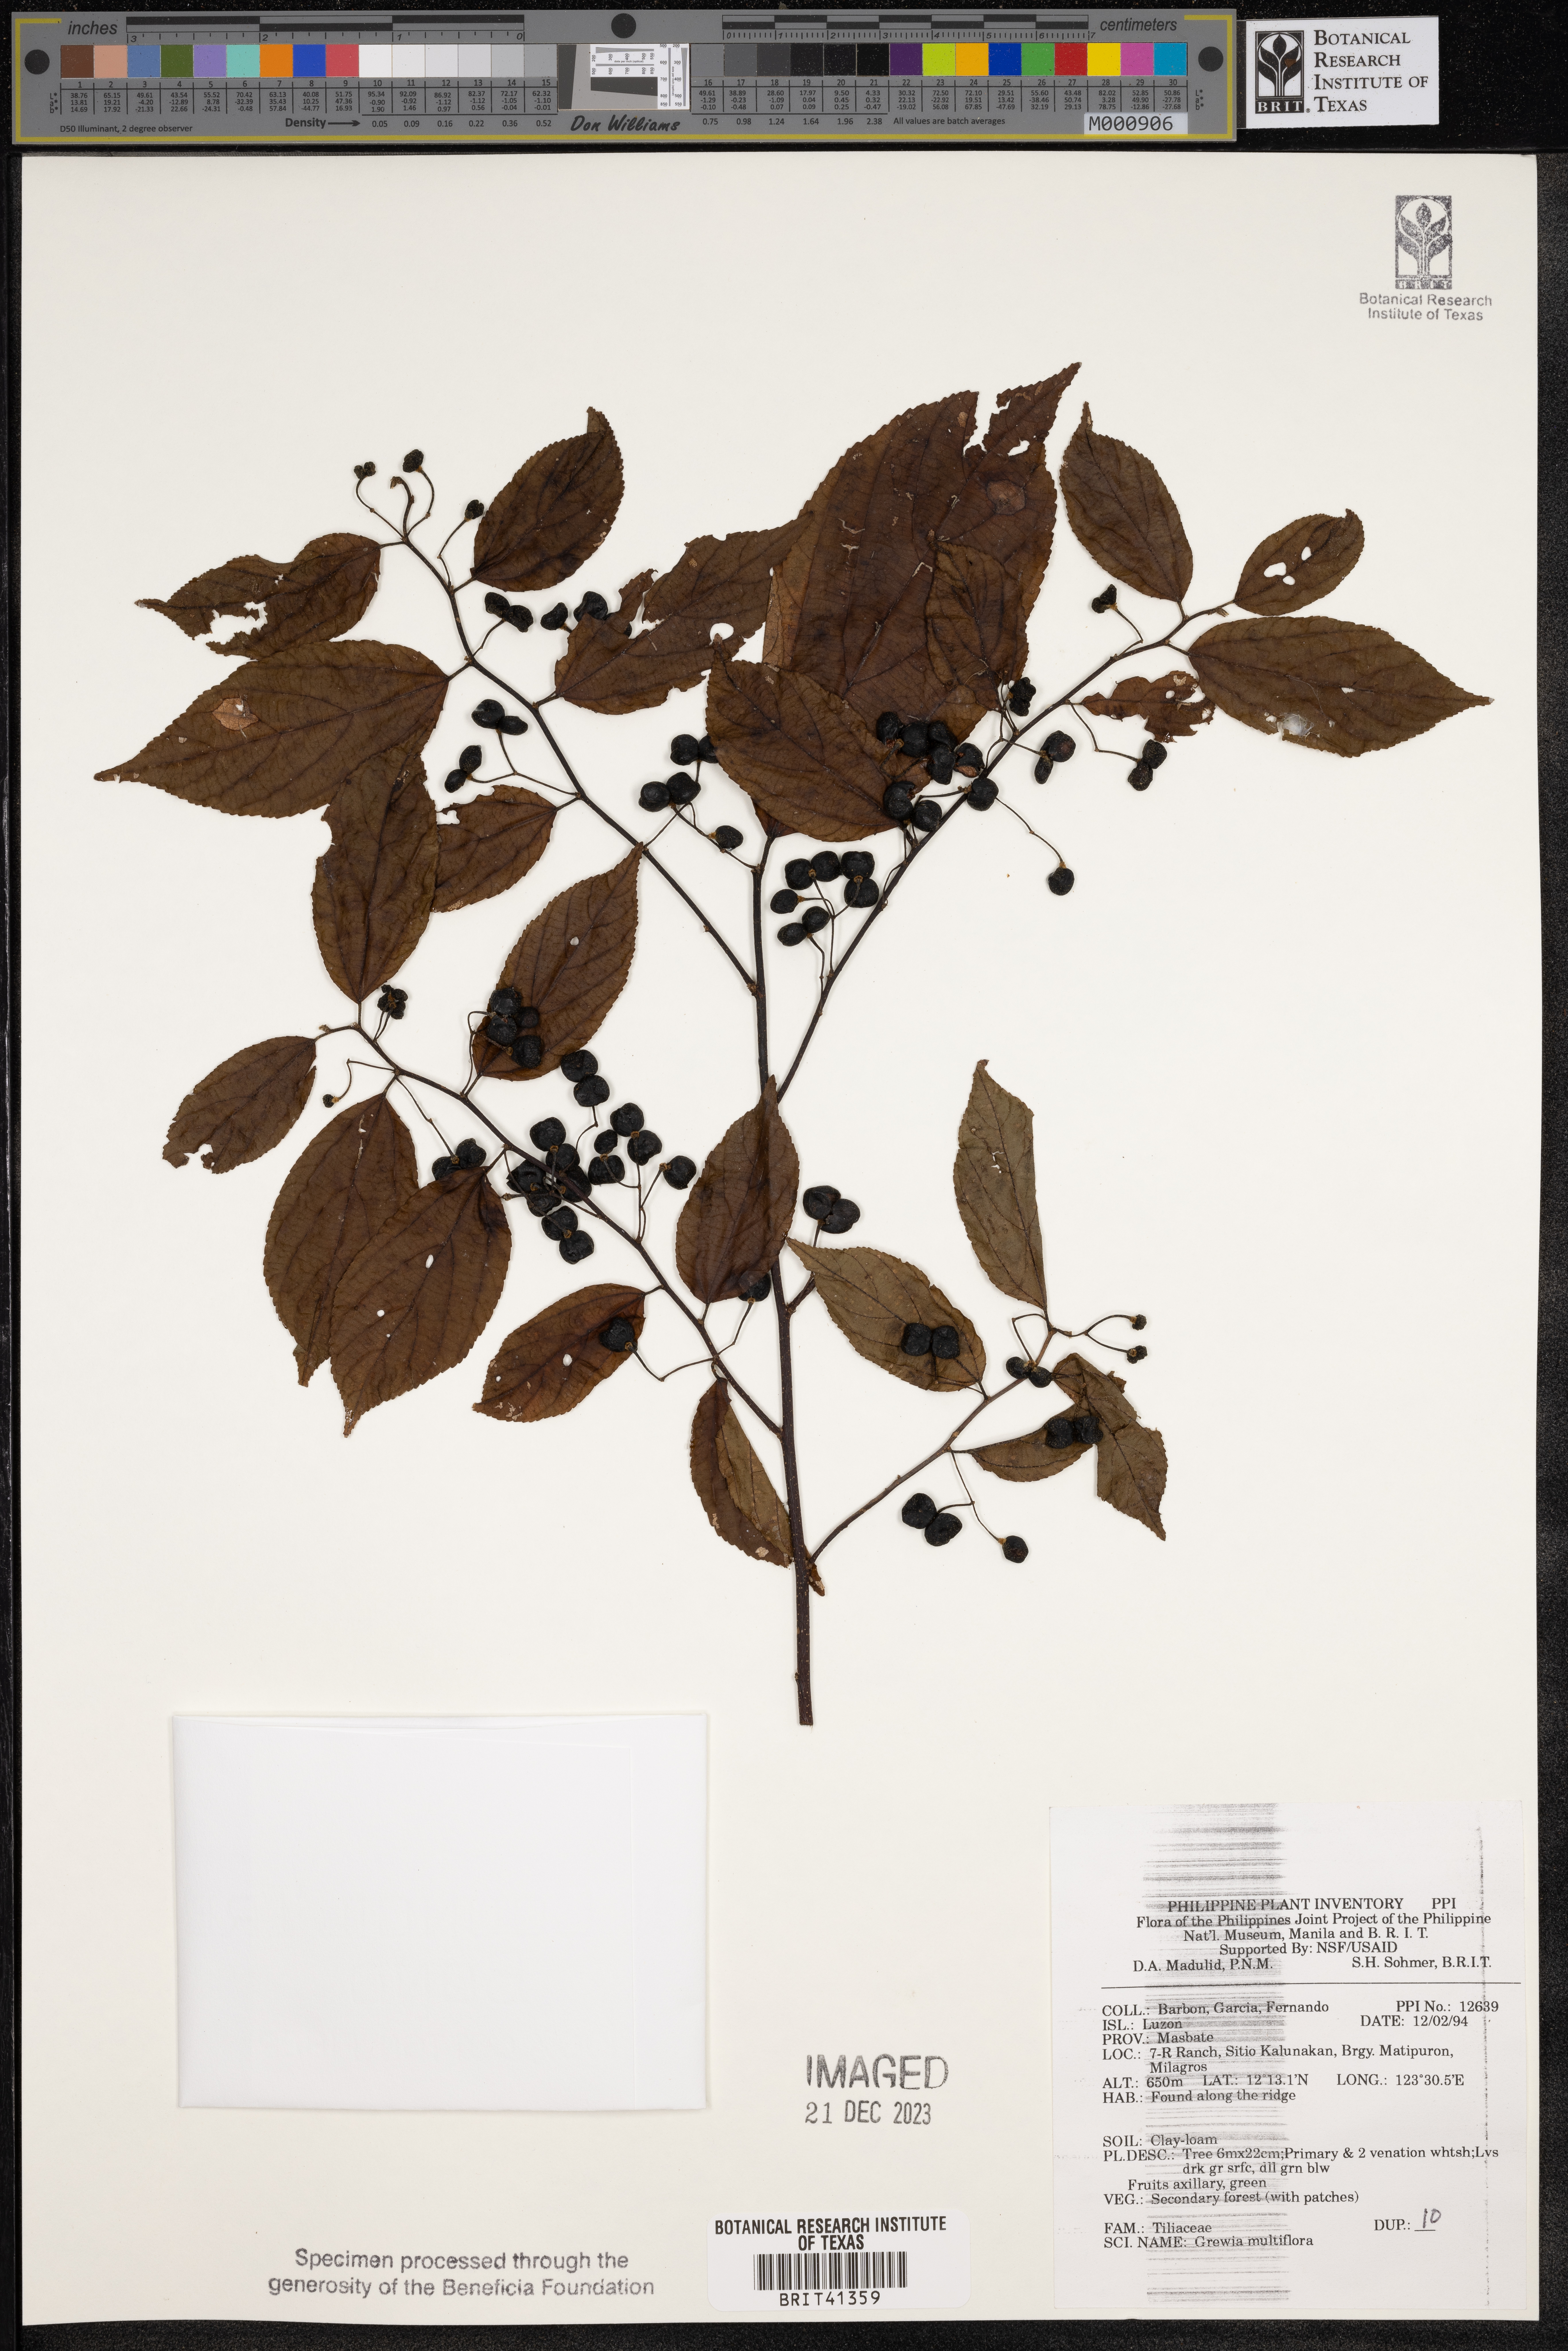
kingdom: Plantae
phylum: Tracheophyta
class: Magnoliopsida
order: Malvales
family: Malvaceae
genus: Grewia
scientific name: Grewia multiflora
